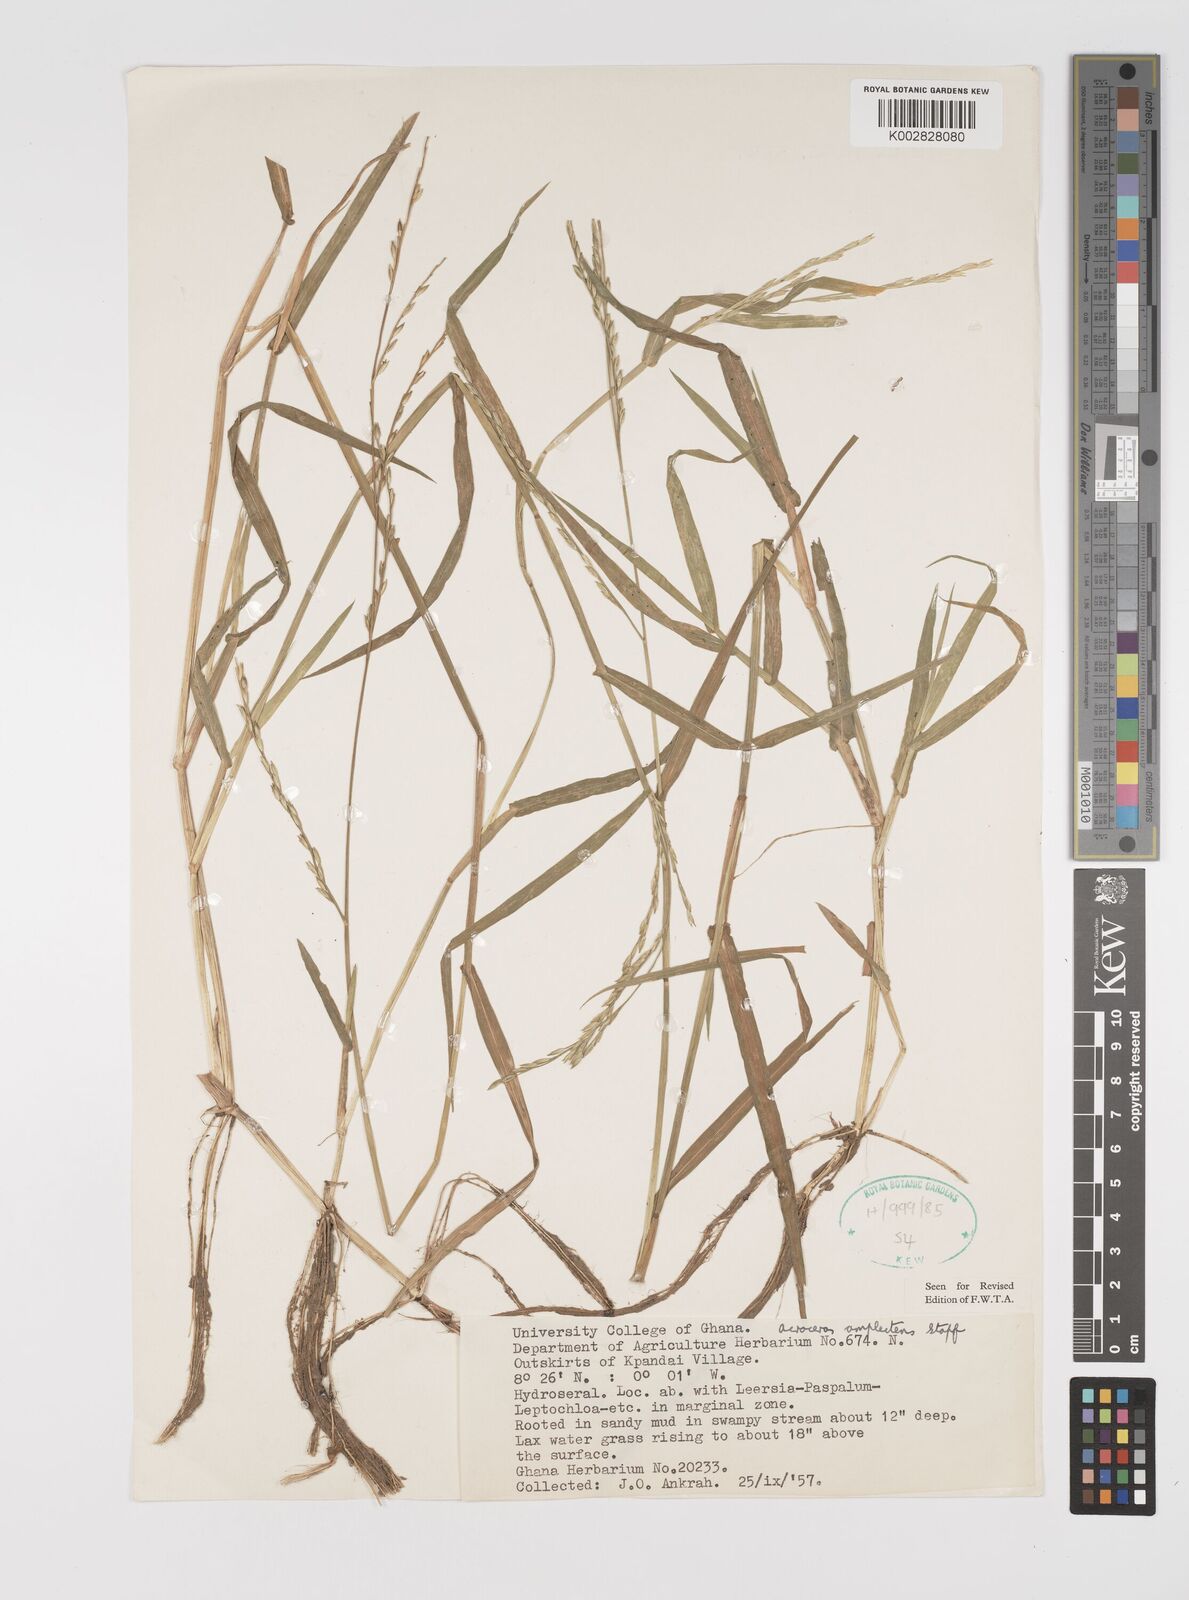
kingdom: Plantae
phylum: Tracheophyta
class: Liliopsida
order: Poales
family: Poaceae
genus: Acroceras
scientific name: Acroceras amplectens
